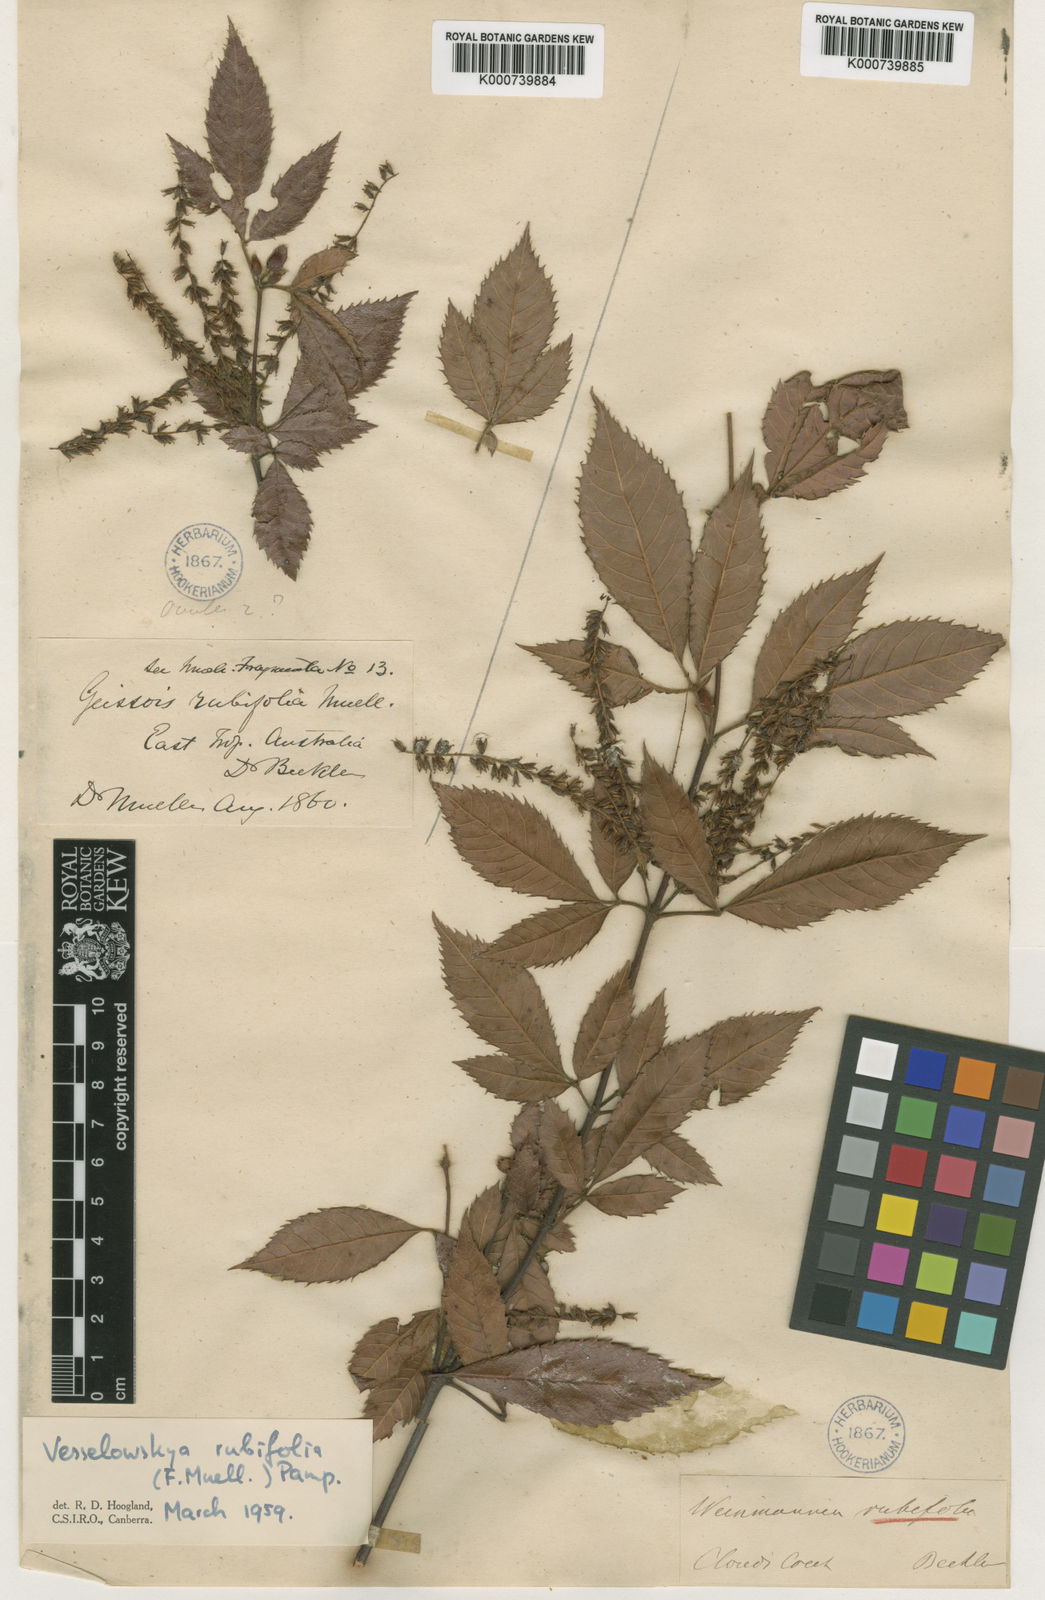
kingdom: Plantae
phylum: Tracheophyta
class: Magnoliopsida
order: Oxalidales
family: Cunoniaceae
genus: Vesselowskya
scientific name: Vesselowskya rubifolia
